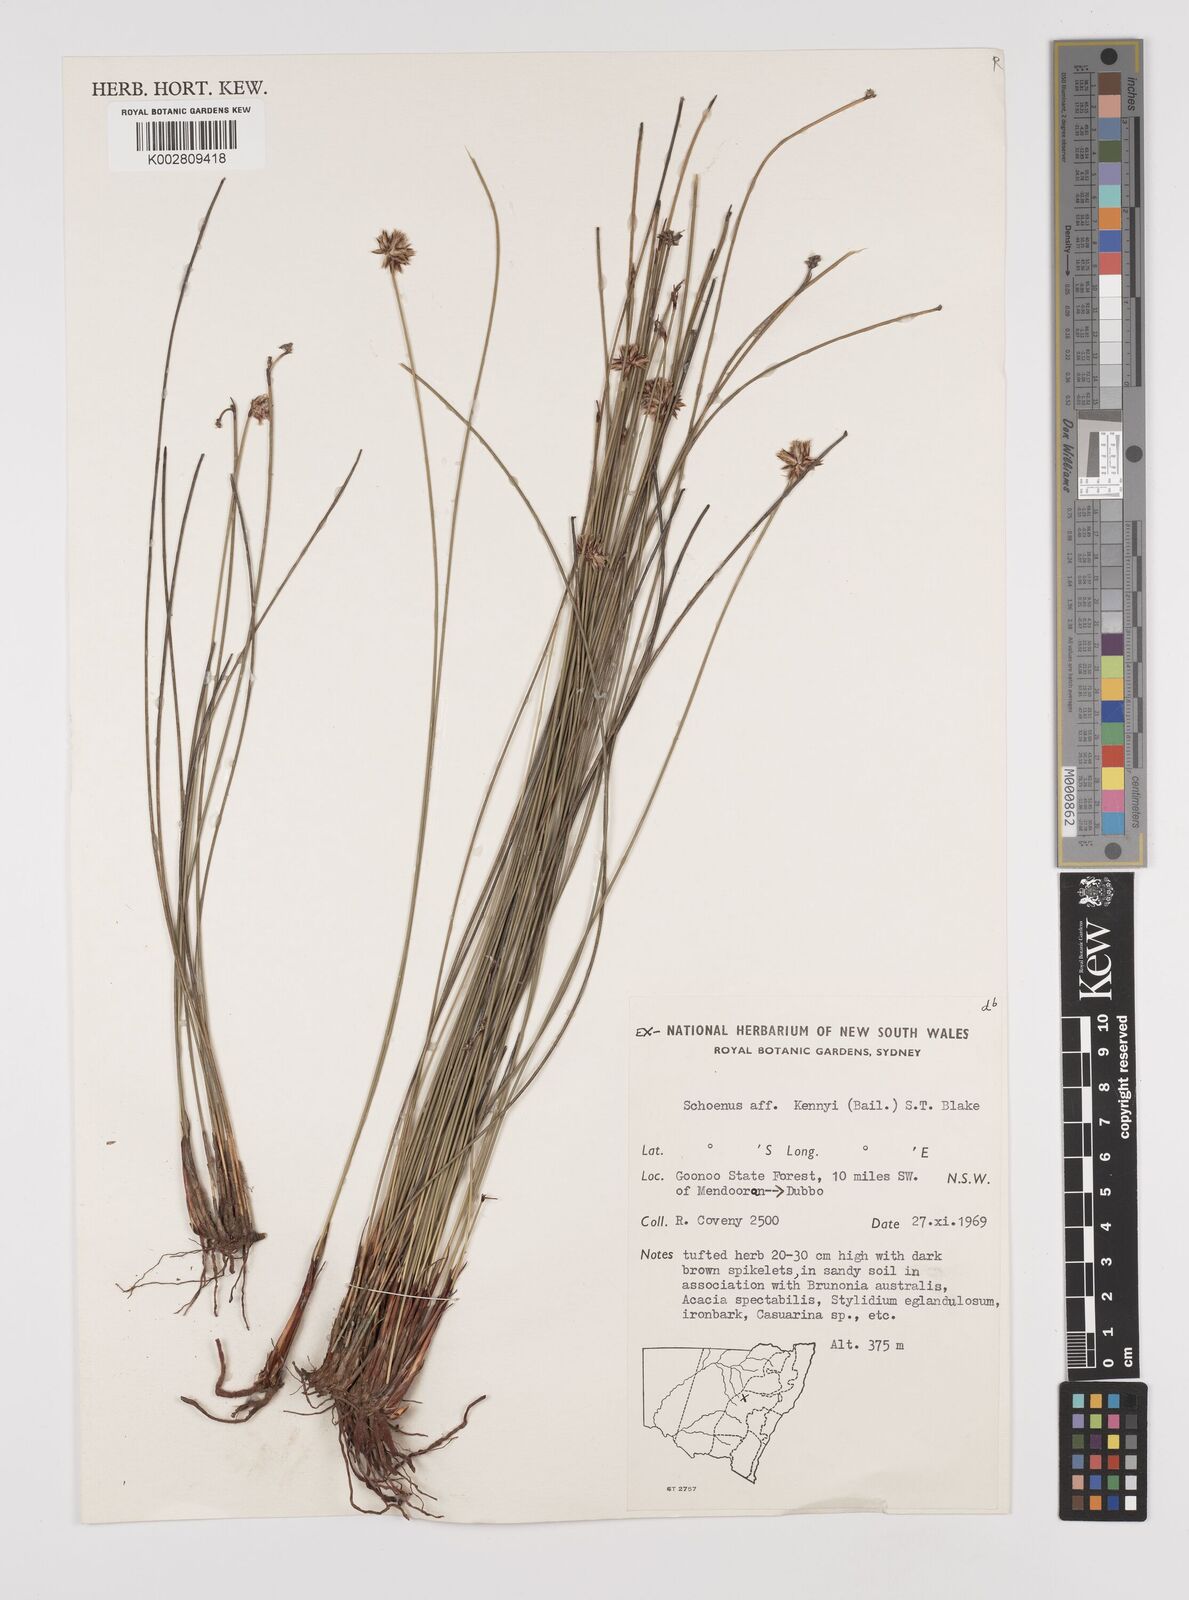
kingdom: Plantae
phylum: Tracheophyta
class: Liliopsida
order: Poales
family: Cyperaceae
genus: Schoenus
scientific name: Schoenus kennyi
